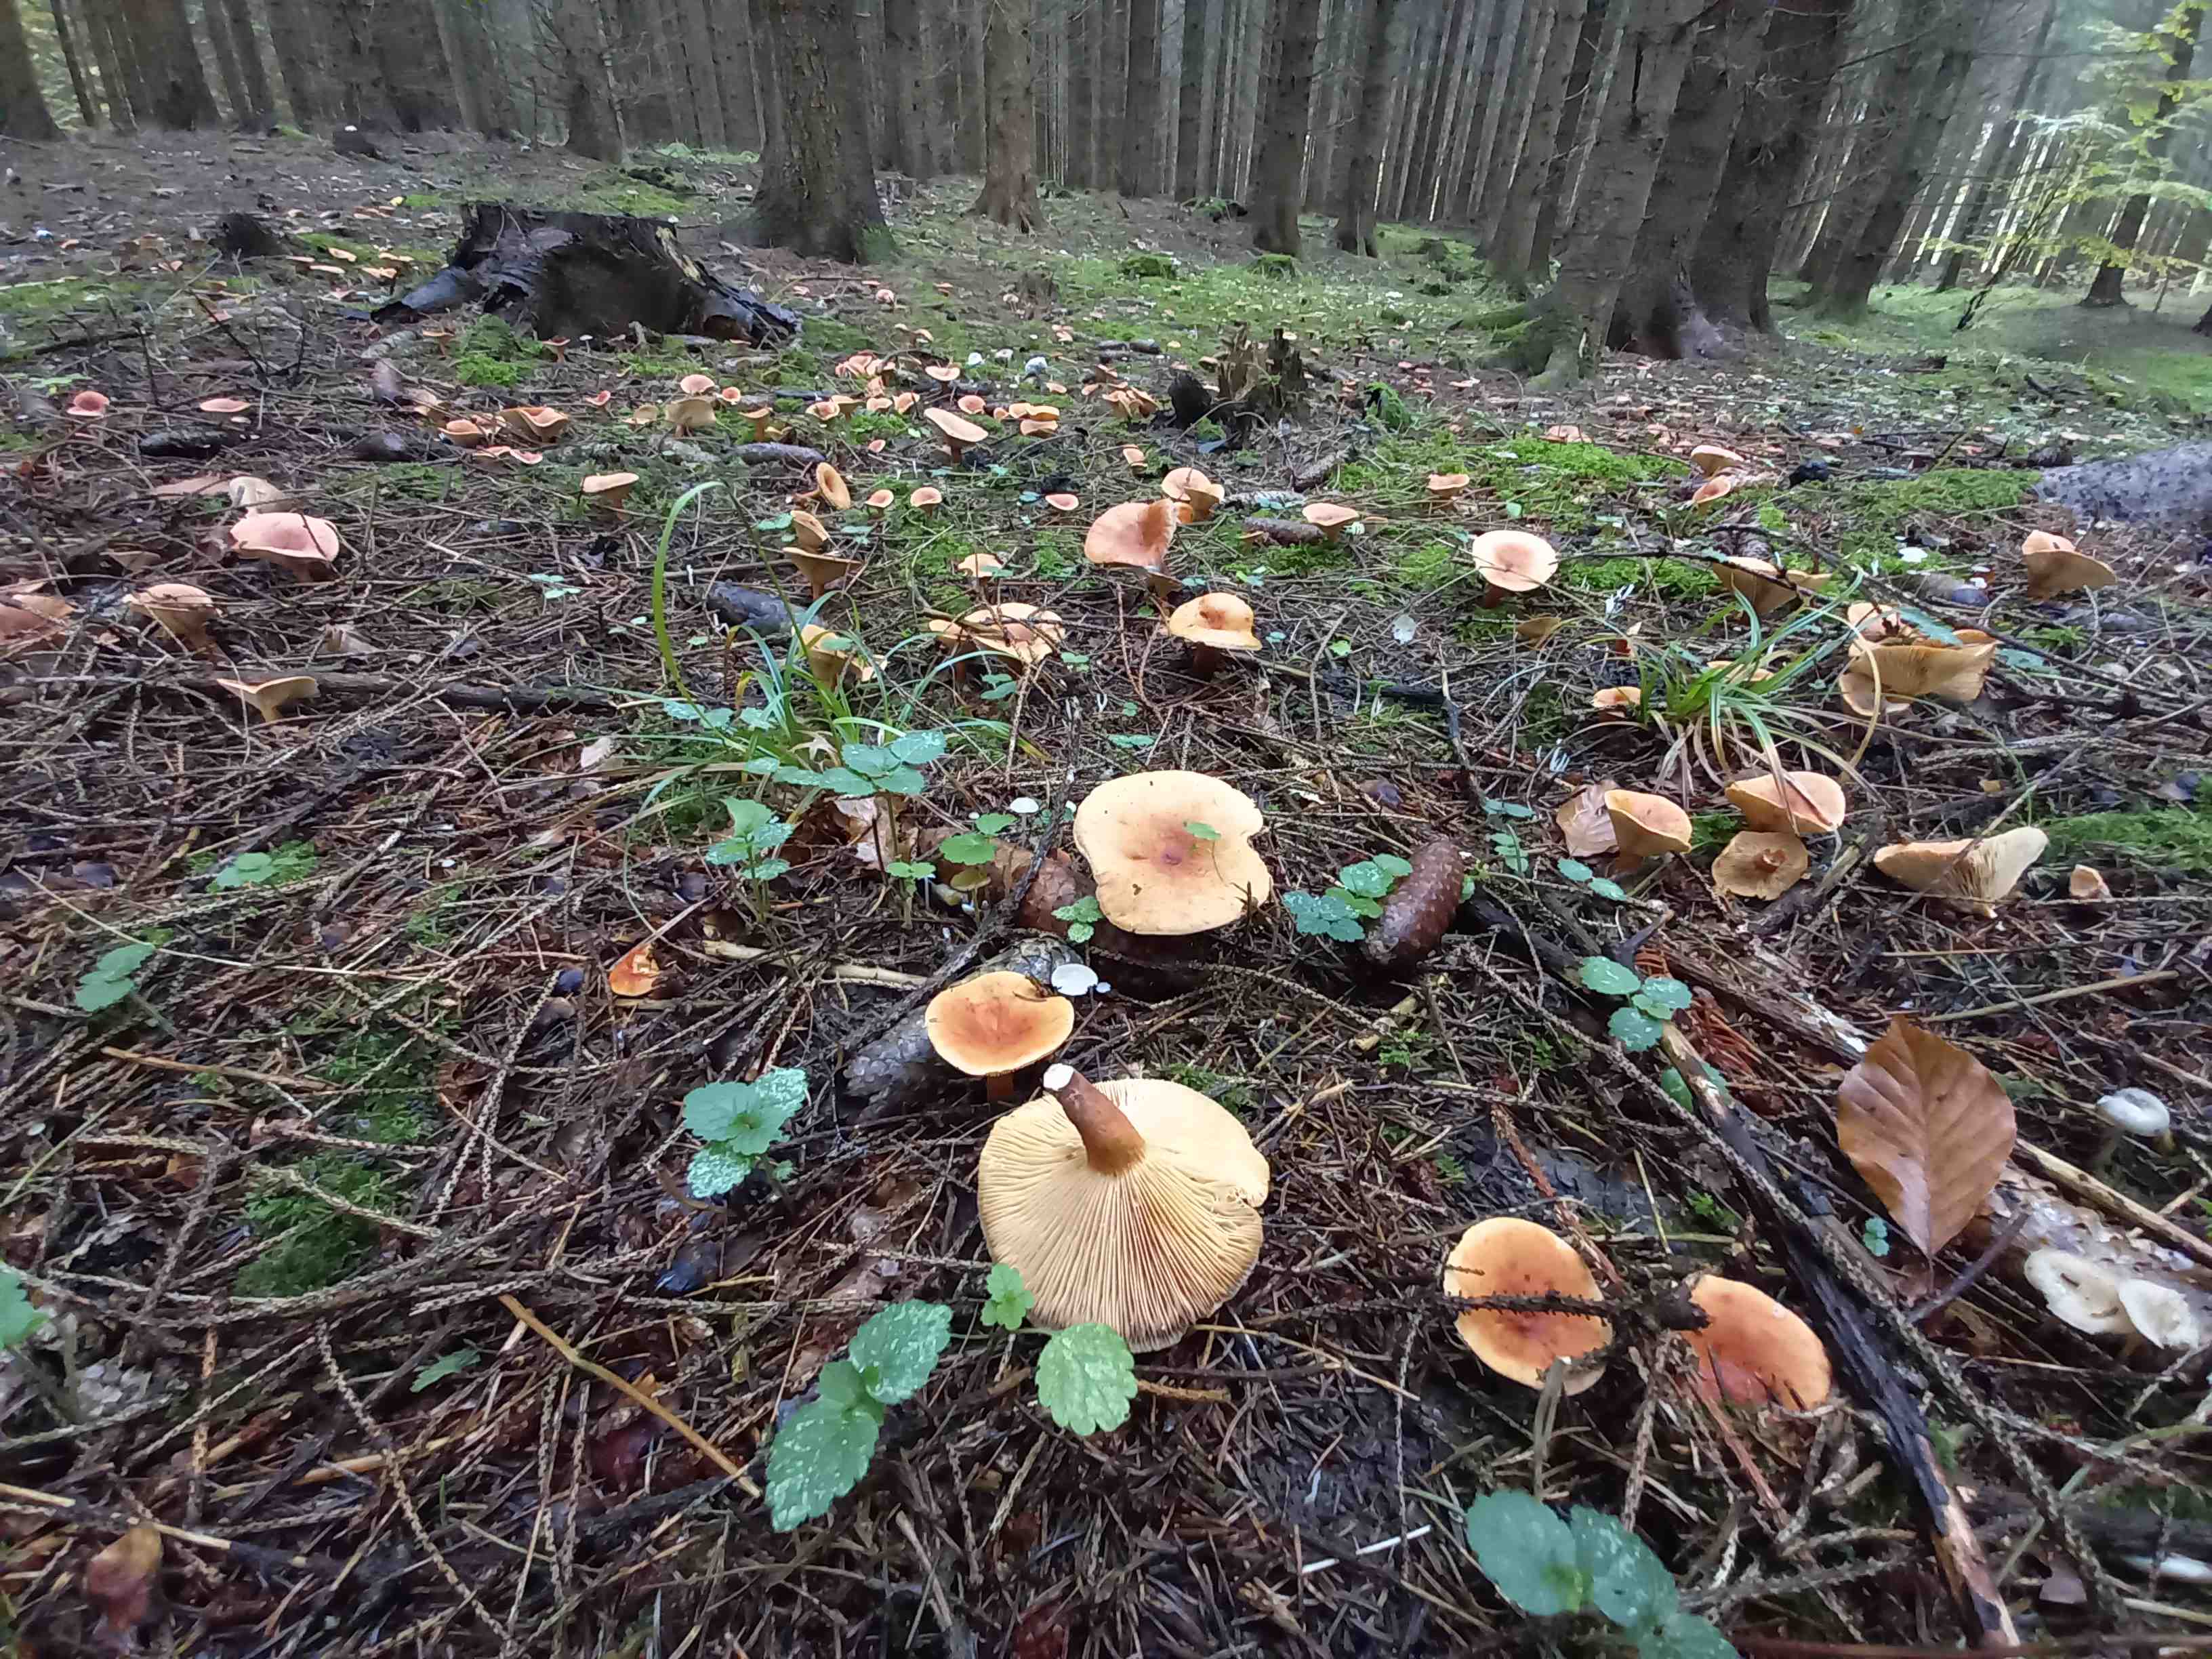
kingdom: Fungi
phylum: Basidiomycota
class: Agaricomycetes
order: Russulales
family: Russulaceae
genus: Lactarius
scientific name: Lactarius tabidus
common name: rynket mælkehat
